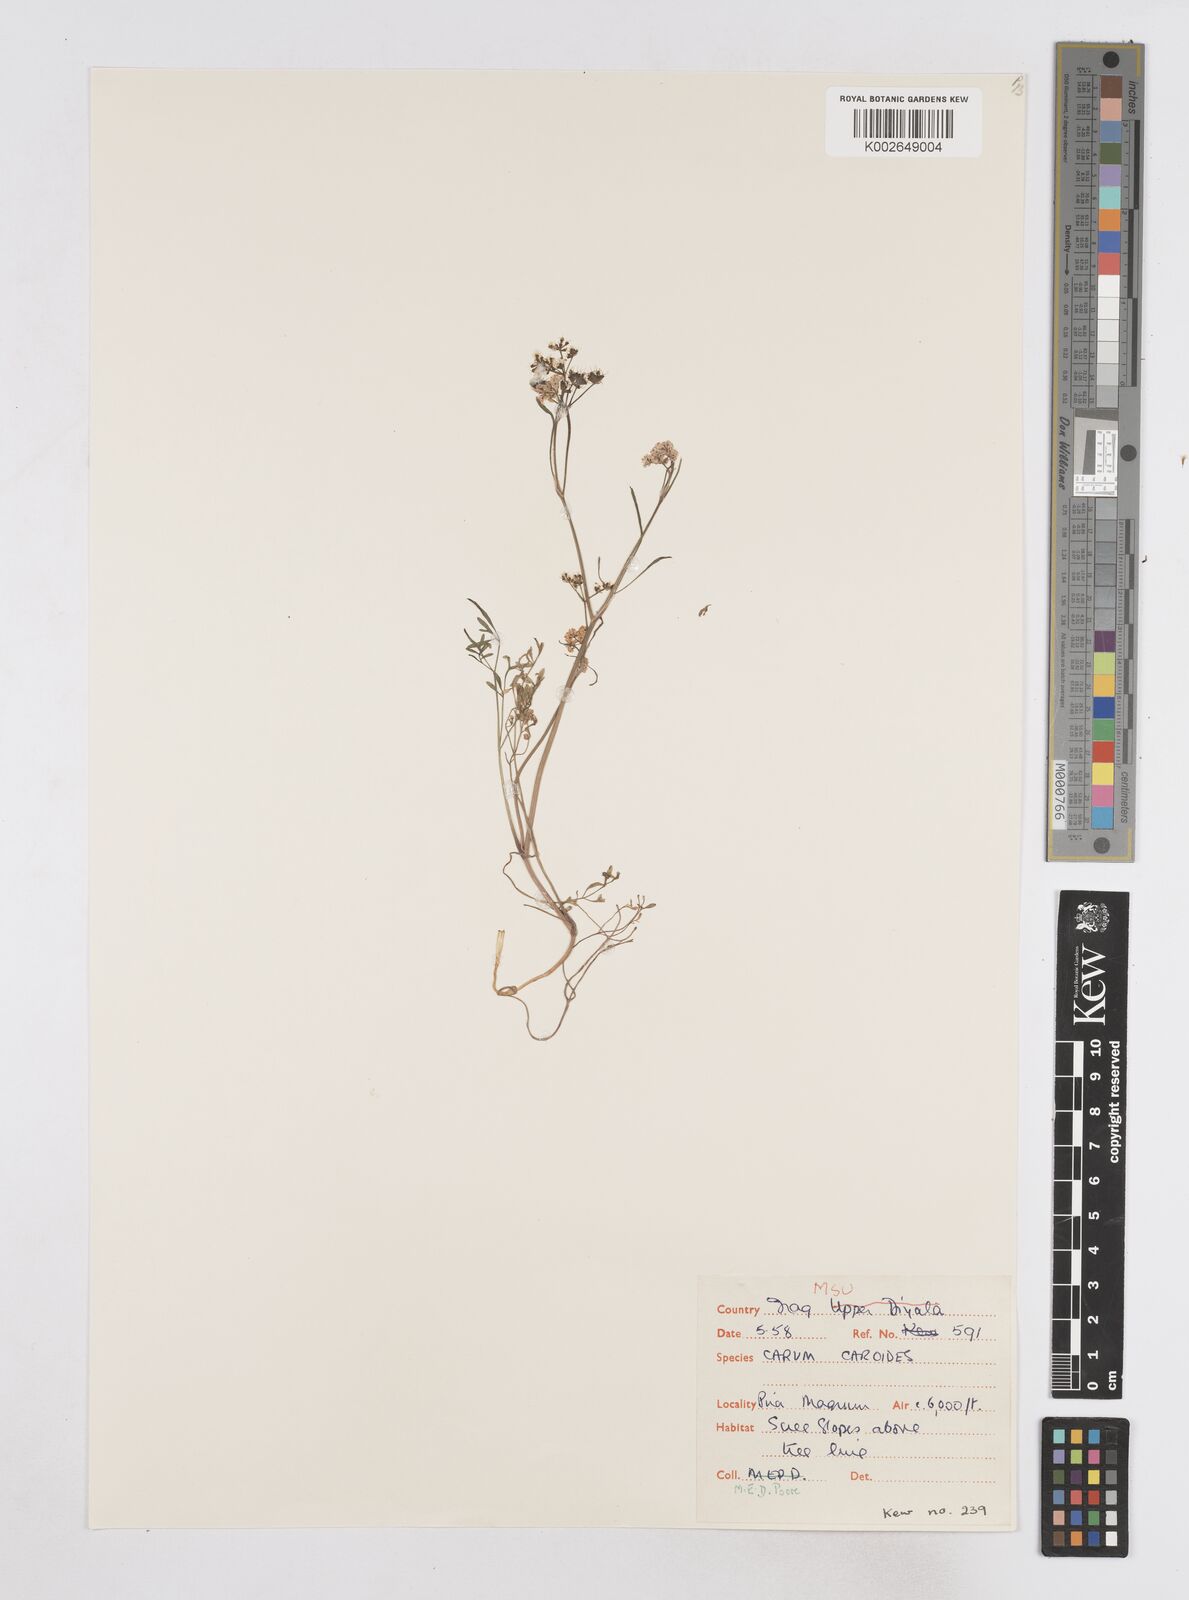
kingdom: Plantae
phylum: Tracheophyta
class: Magnoliopsida
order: Apiales
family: Apiaceae
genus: Elwendia
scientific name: Elwendia caroides
